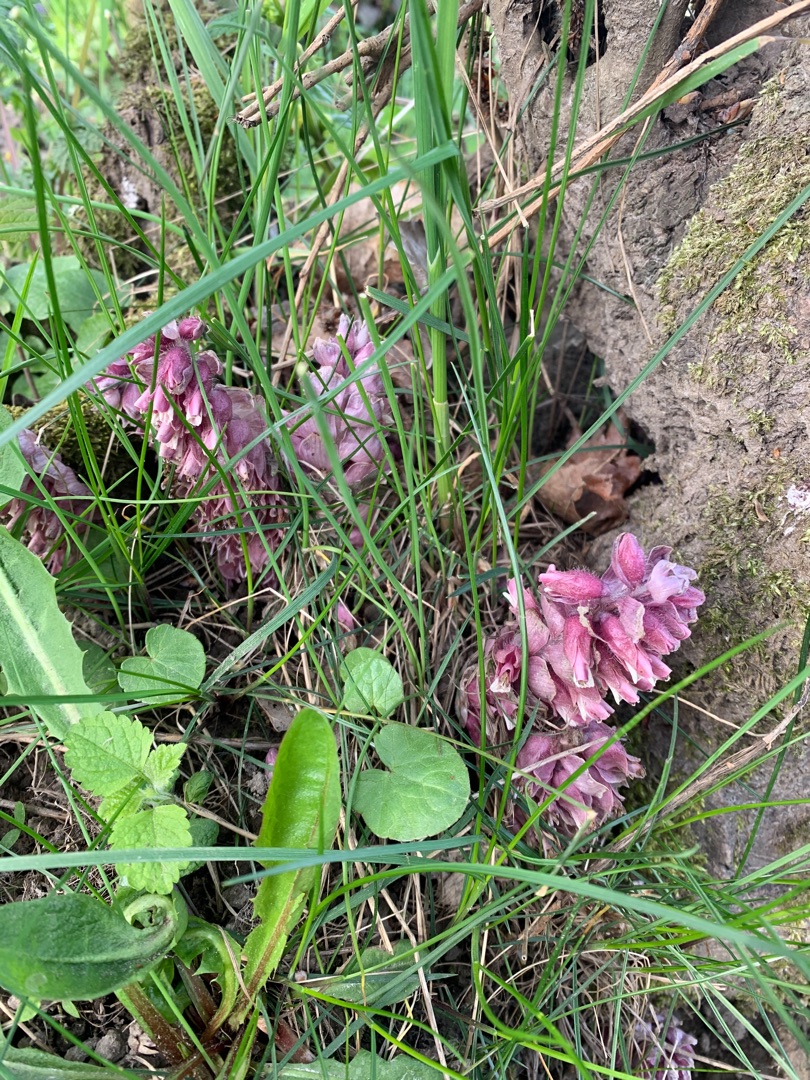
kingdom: Plantae
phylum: Tracheophyta
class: Magnoliopsida
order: Lamiales
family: Orobanchaceae
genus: Lathraea
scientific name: Lathraea squamaria
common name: Skælrod
